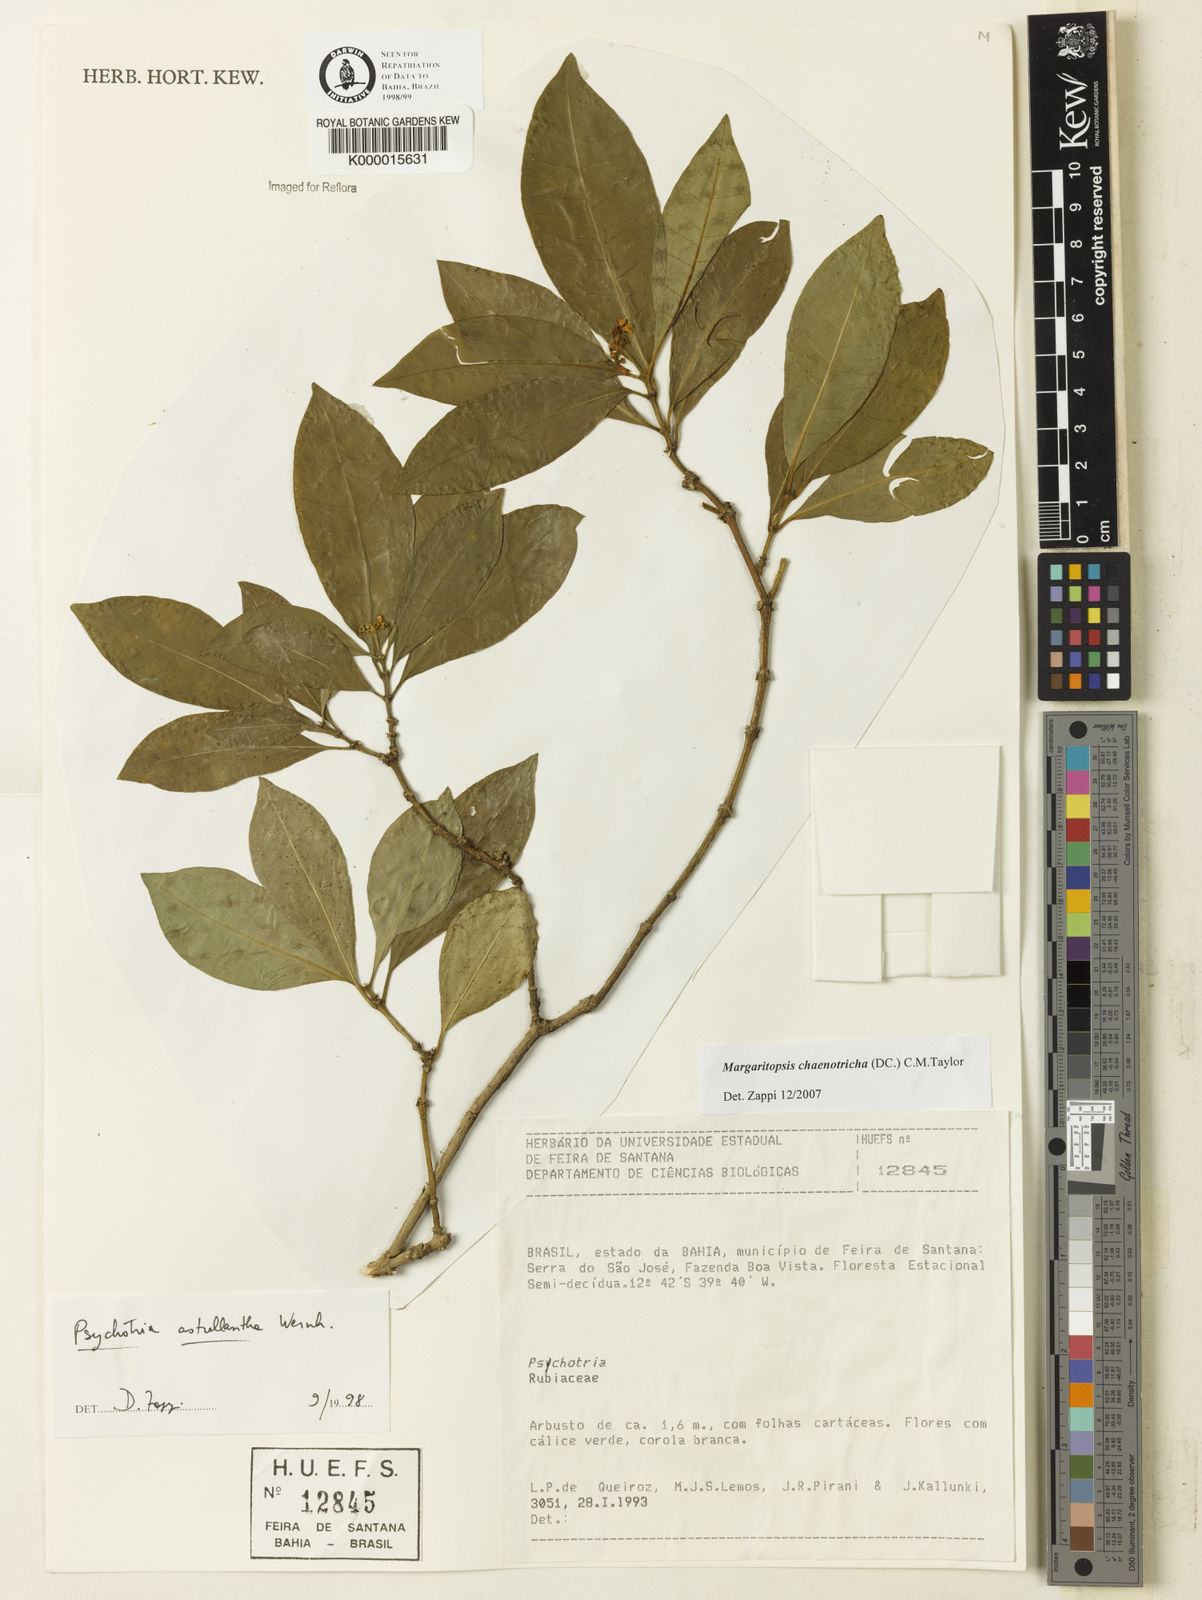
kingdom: Plantae
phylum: Tracheophyta
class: Magnoliopsida
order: Gentianales
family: Rubiaceae
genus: Eumachia
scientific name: Eumachia chaenotricha
